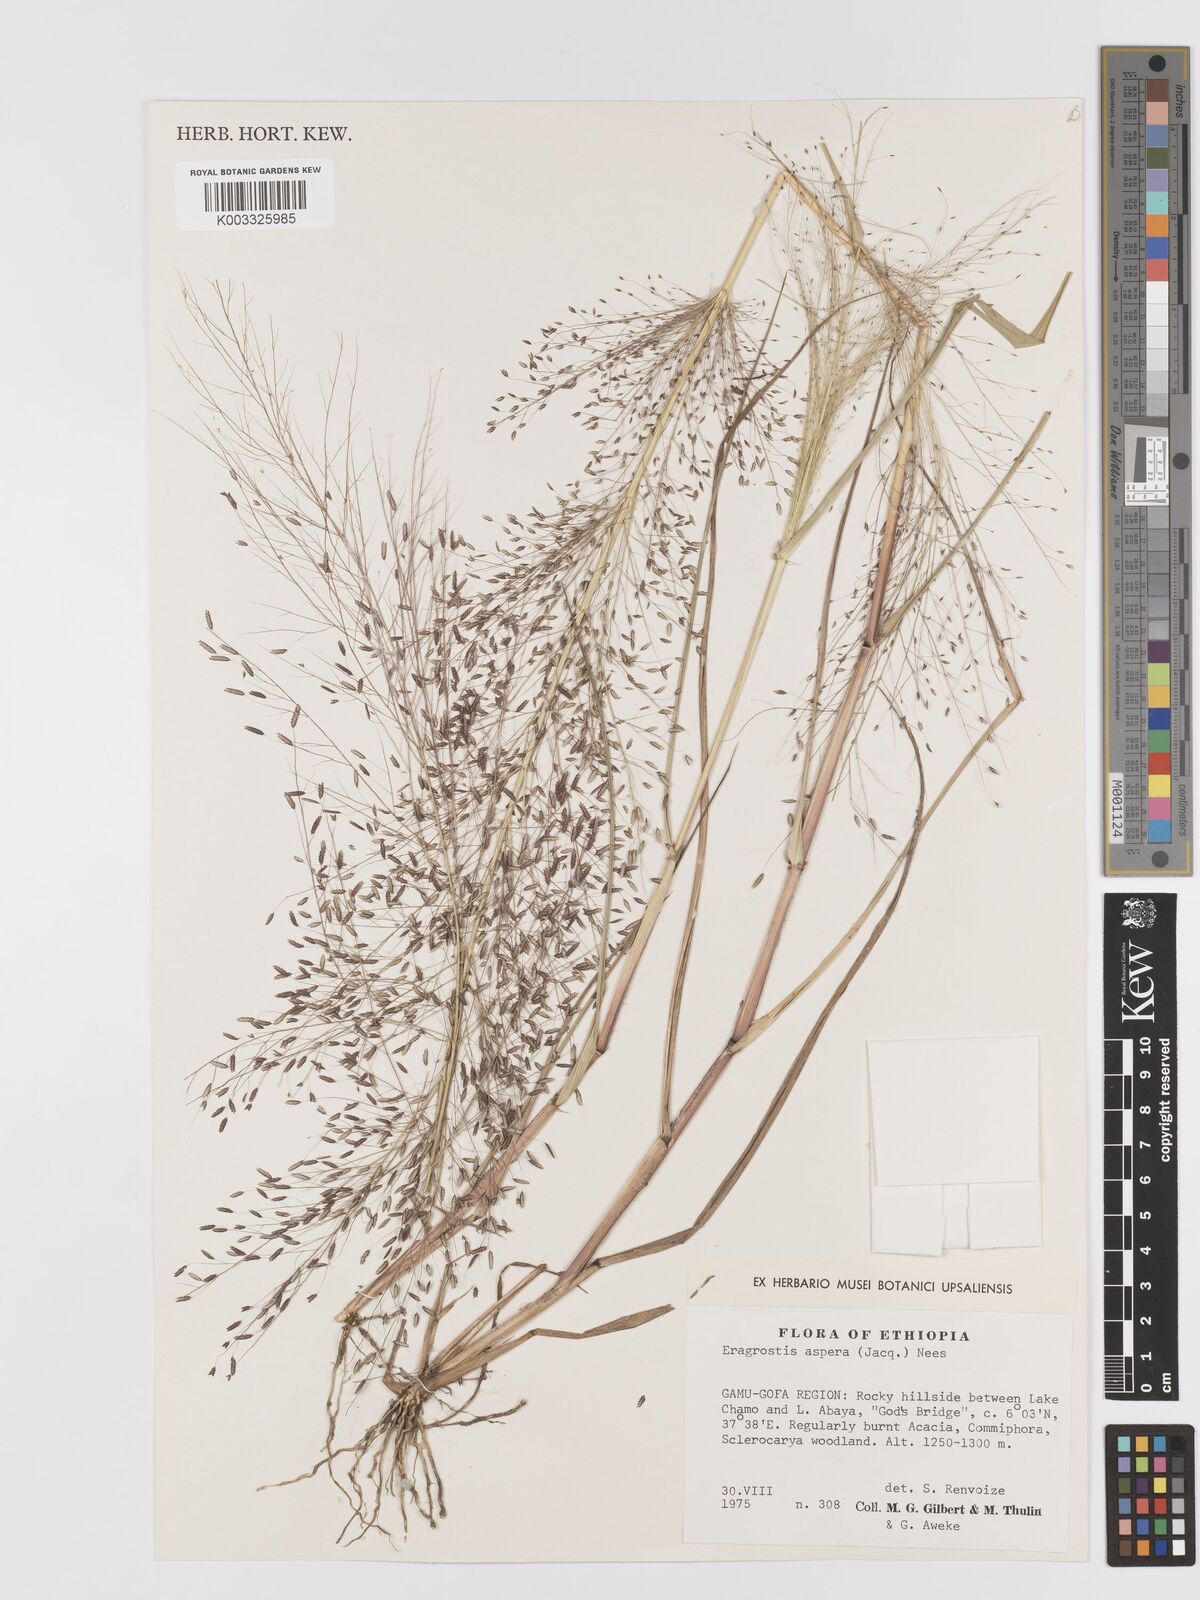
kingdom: Plantae
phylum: Tracheophyta
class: Liliopsida
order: Poales
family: Poaceae
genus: Eragrostis
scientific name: Eragrostis aspera
